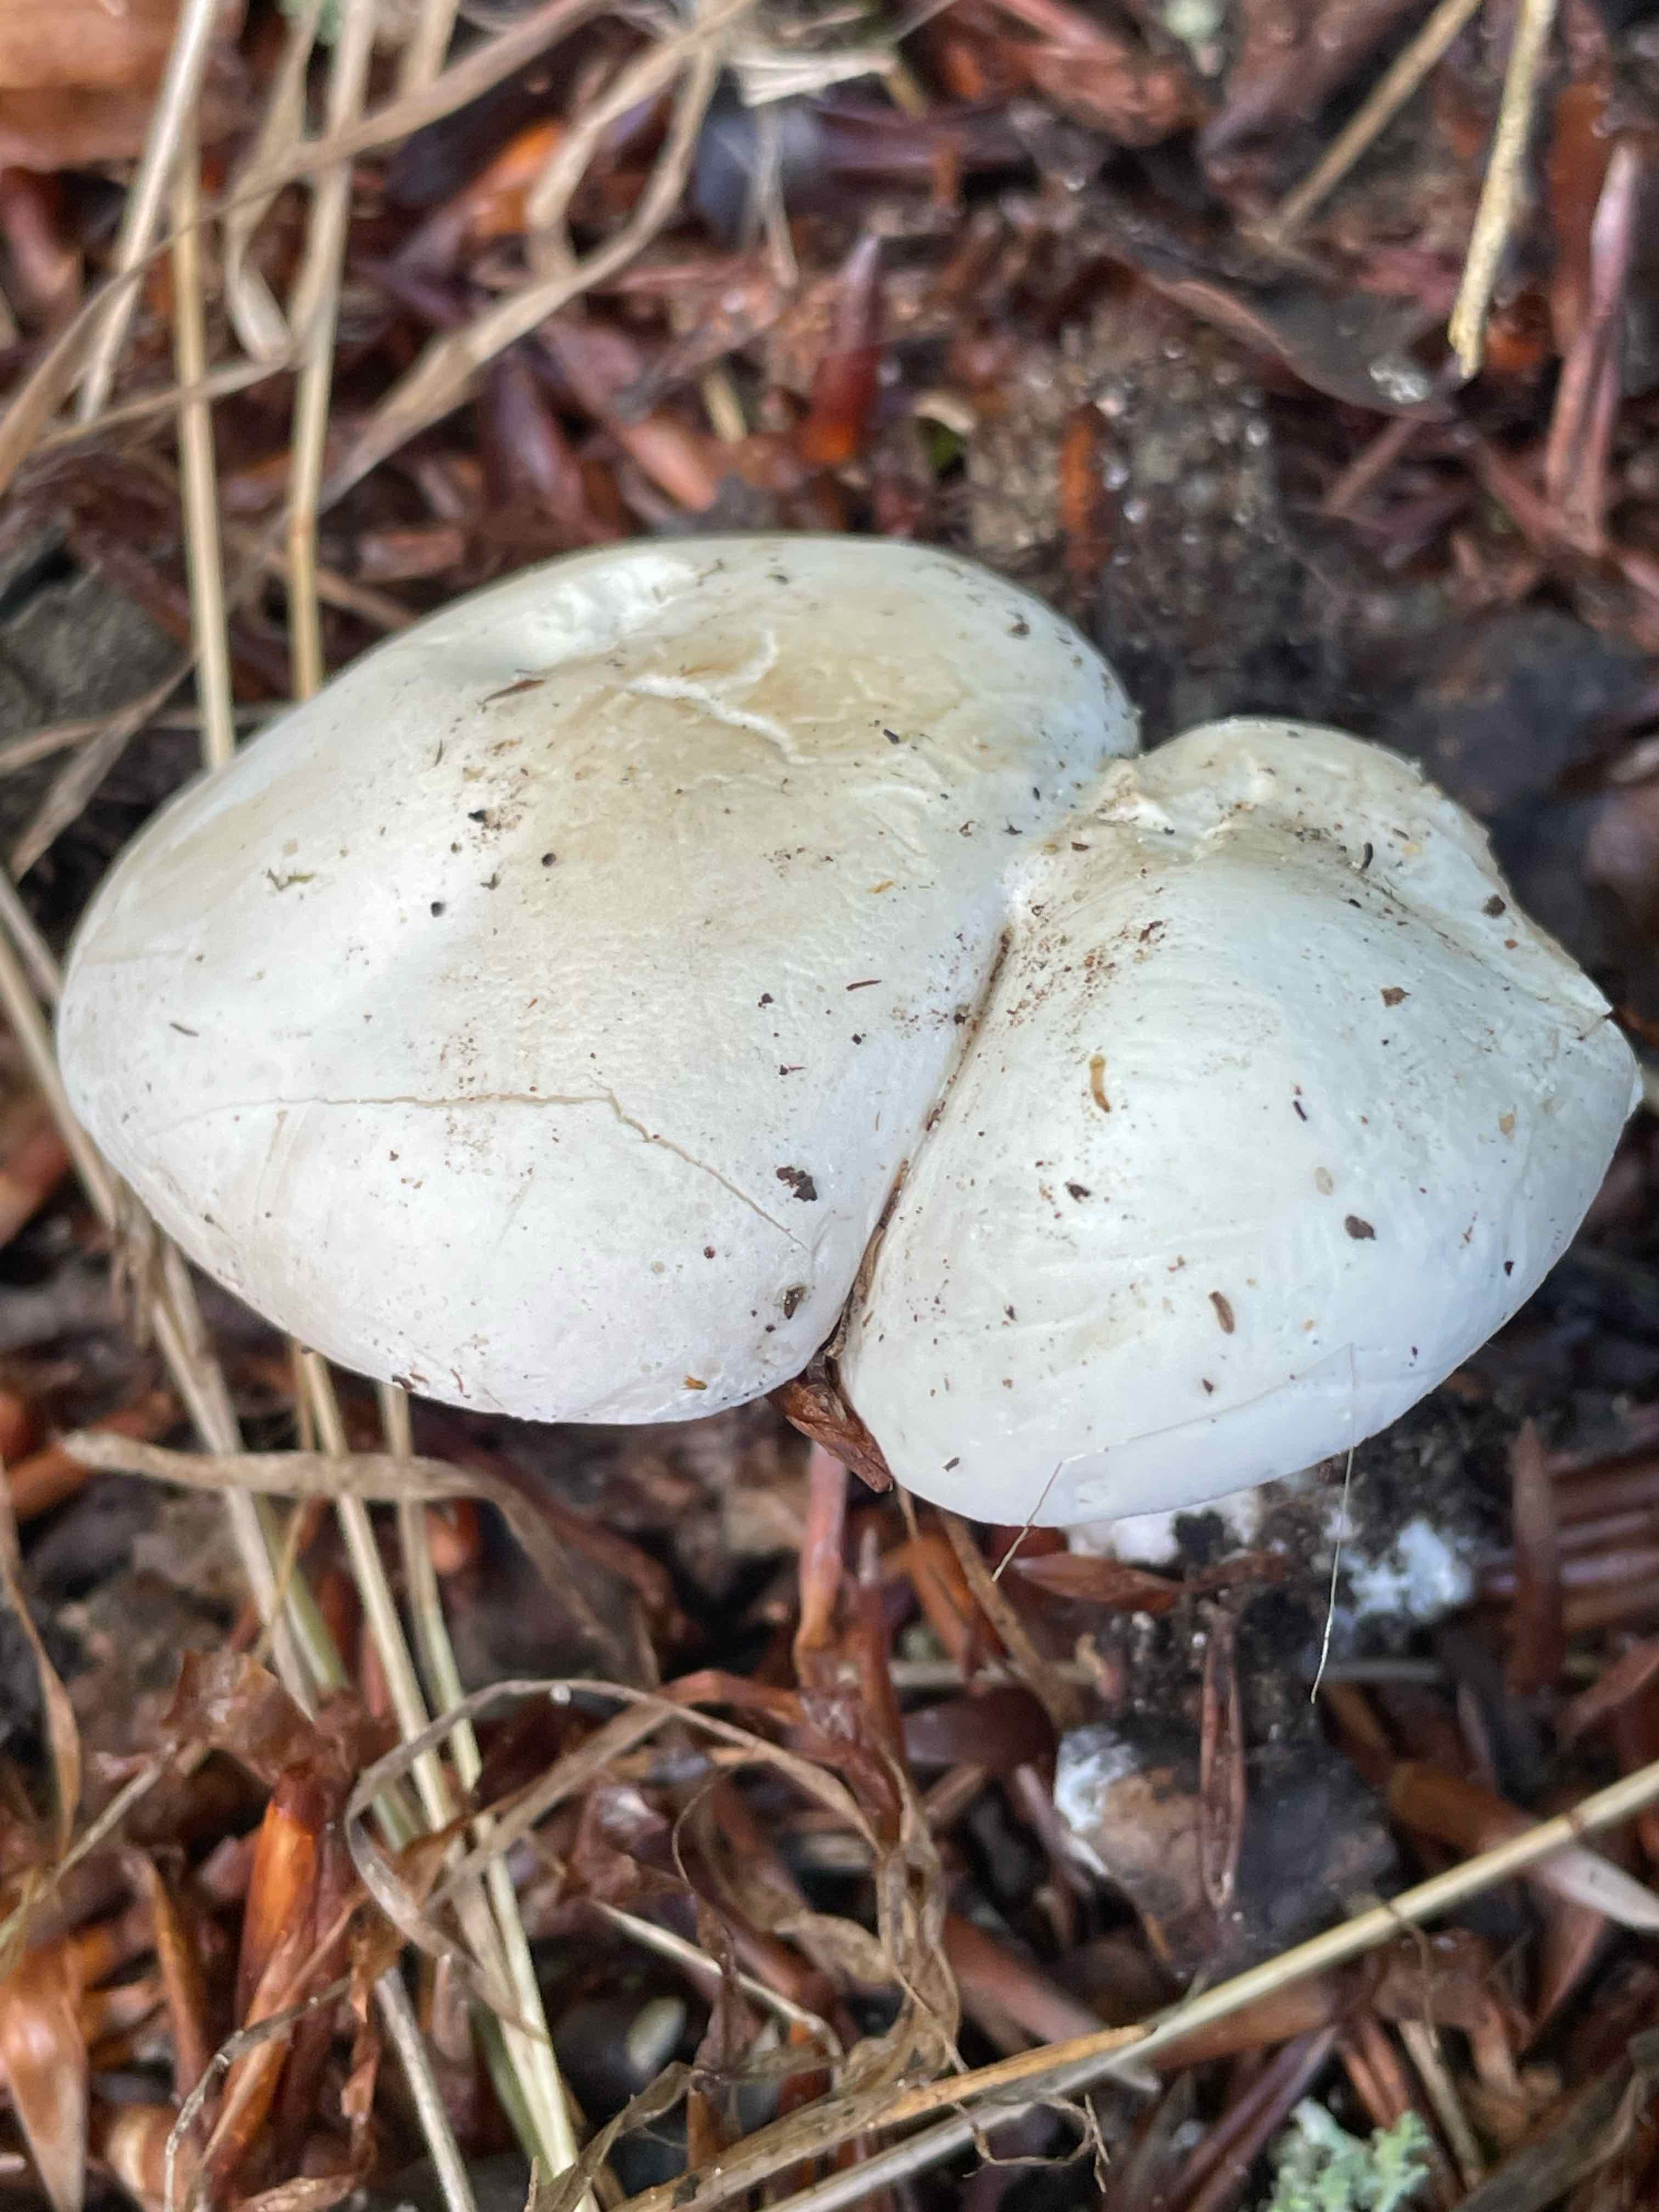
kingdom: Fungi
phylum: Basidiomycota
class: Agaricomycetes
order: Agaricales
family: Entolomataceae
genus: Clitopilus
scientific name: Clitopilus prunulus
